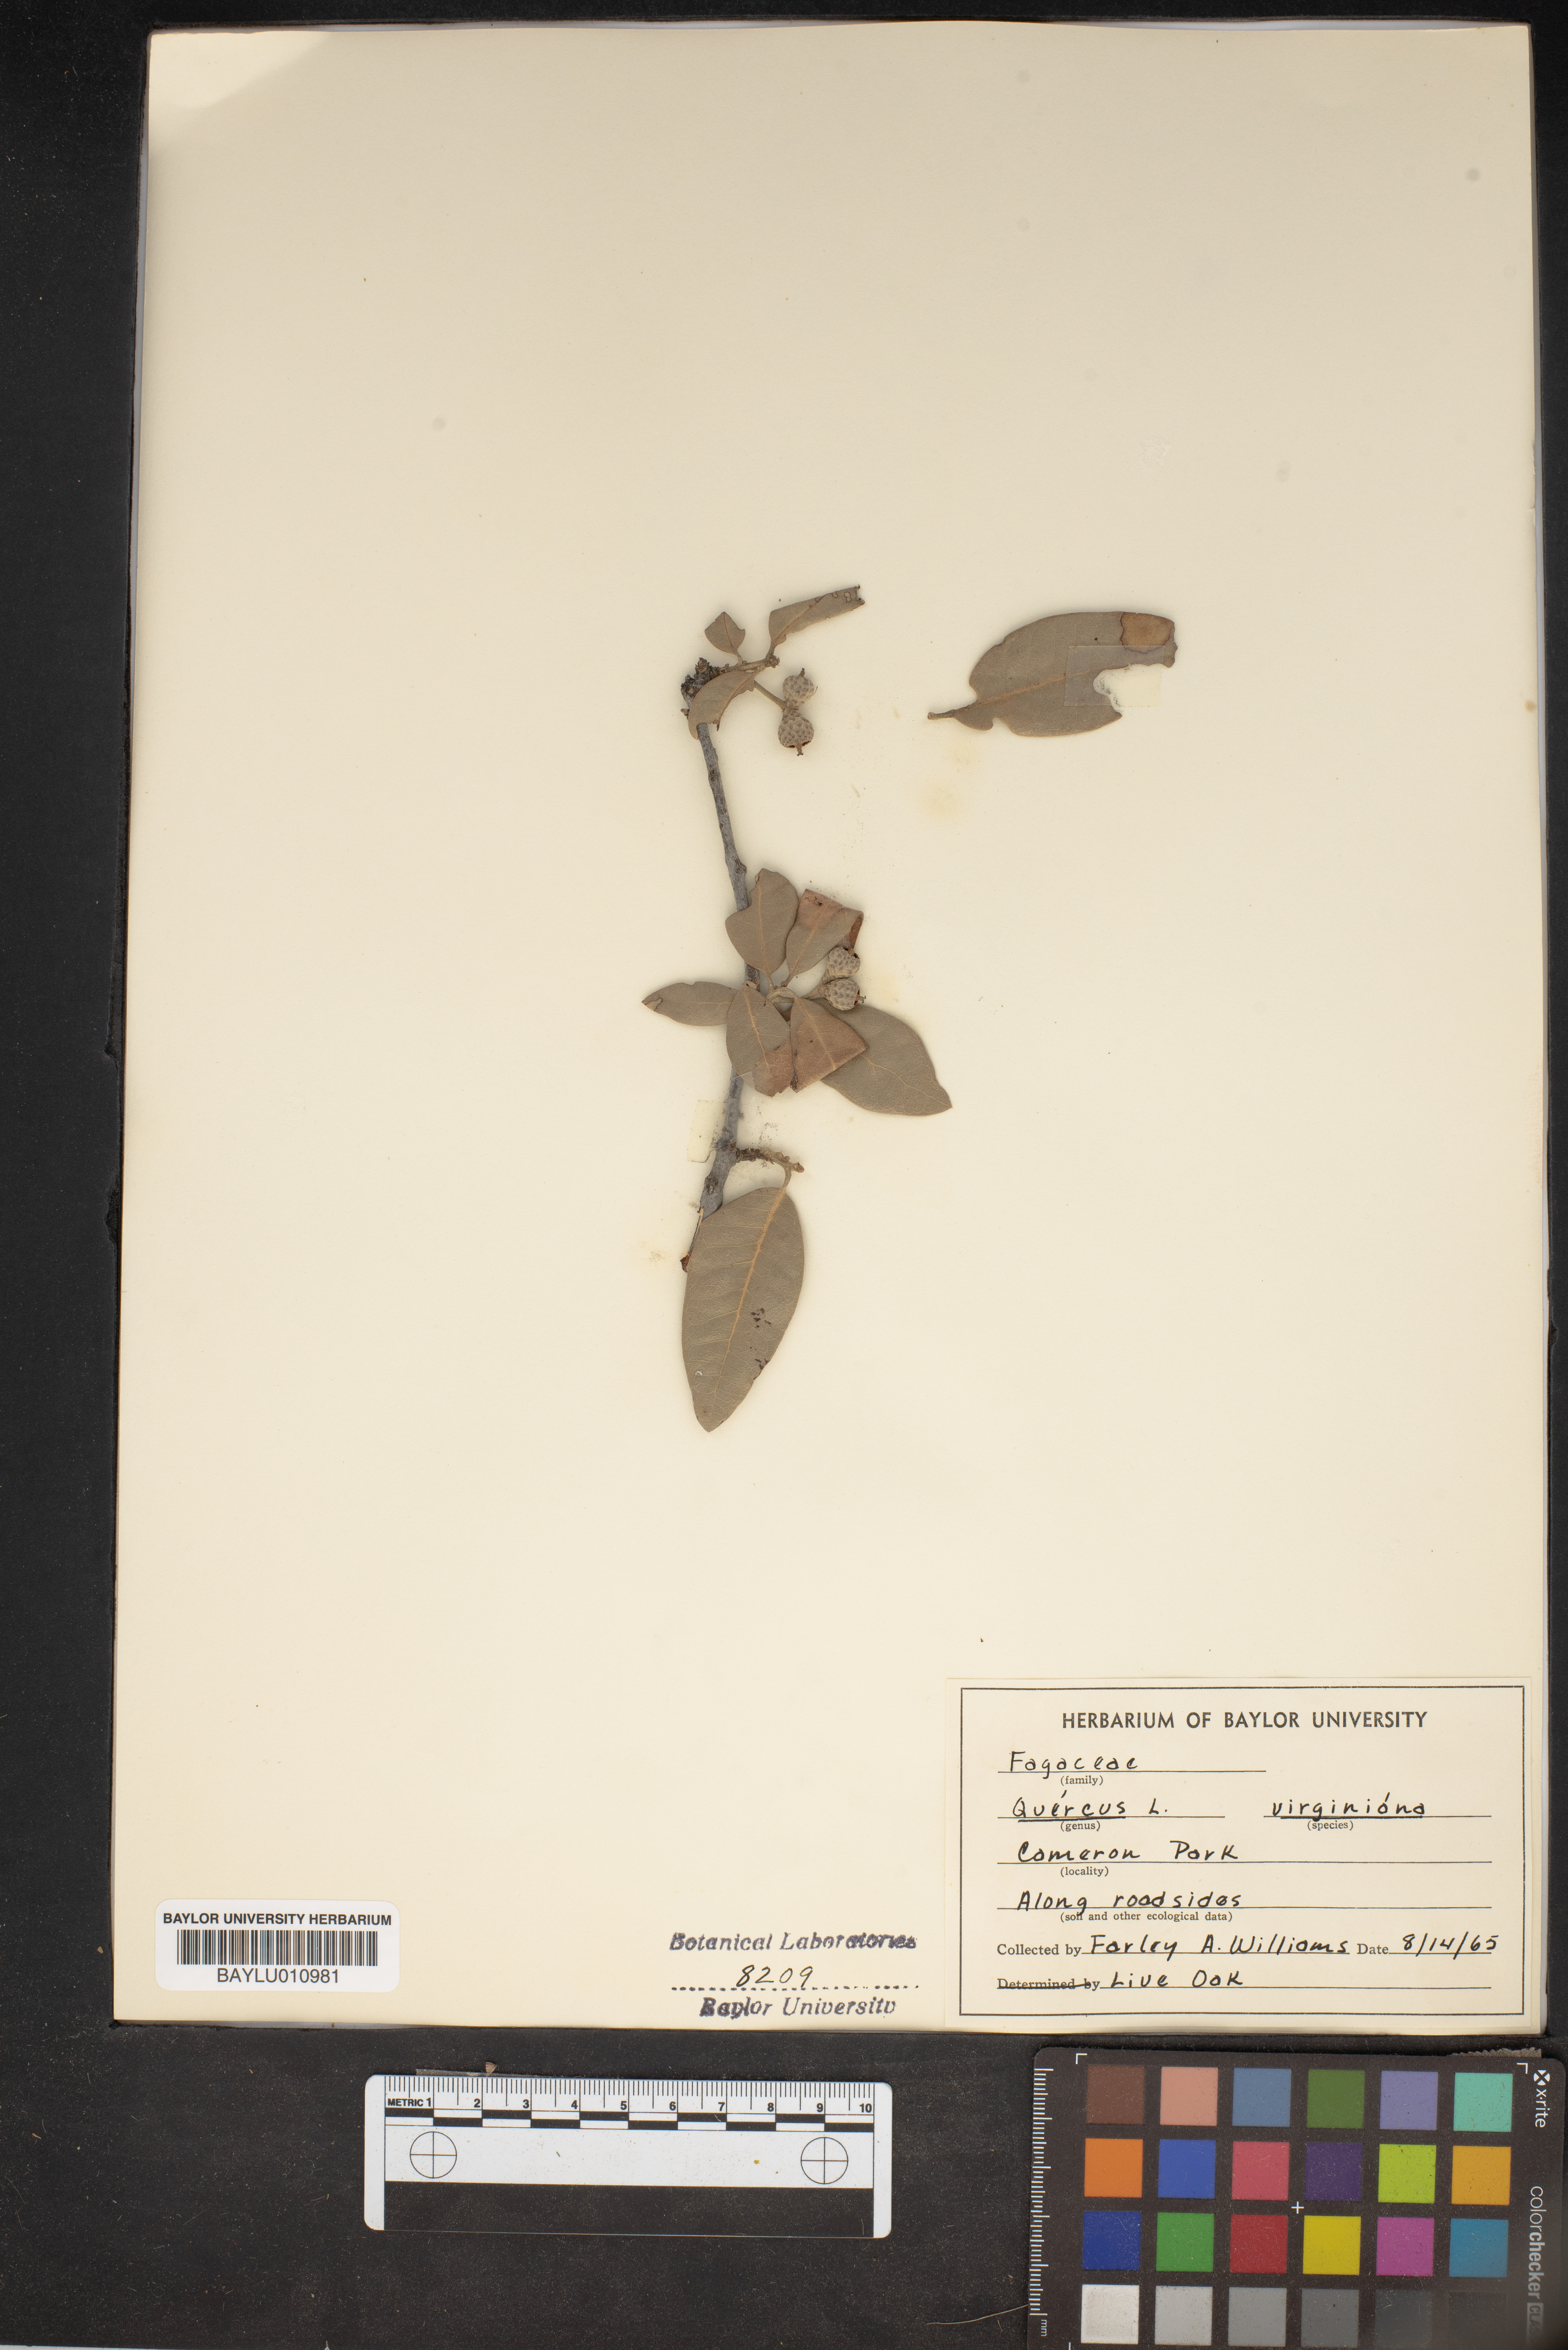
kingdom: Plantae
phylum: Tracheophyta
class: Magnoliopsida
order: Fagales
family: Fagaceae
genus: Quercus
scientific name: Quercus virginiana
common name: Southern live oak
